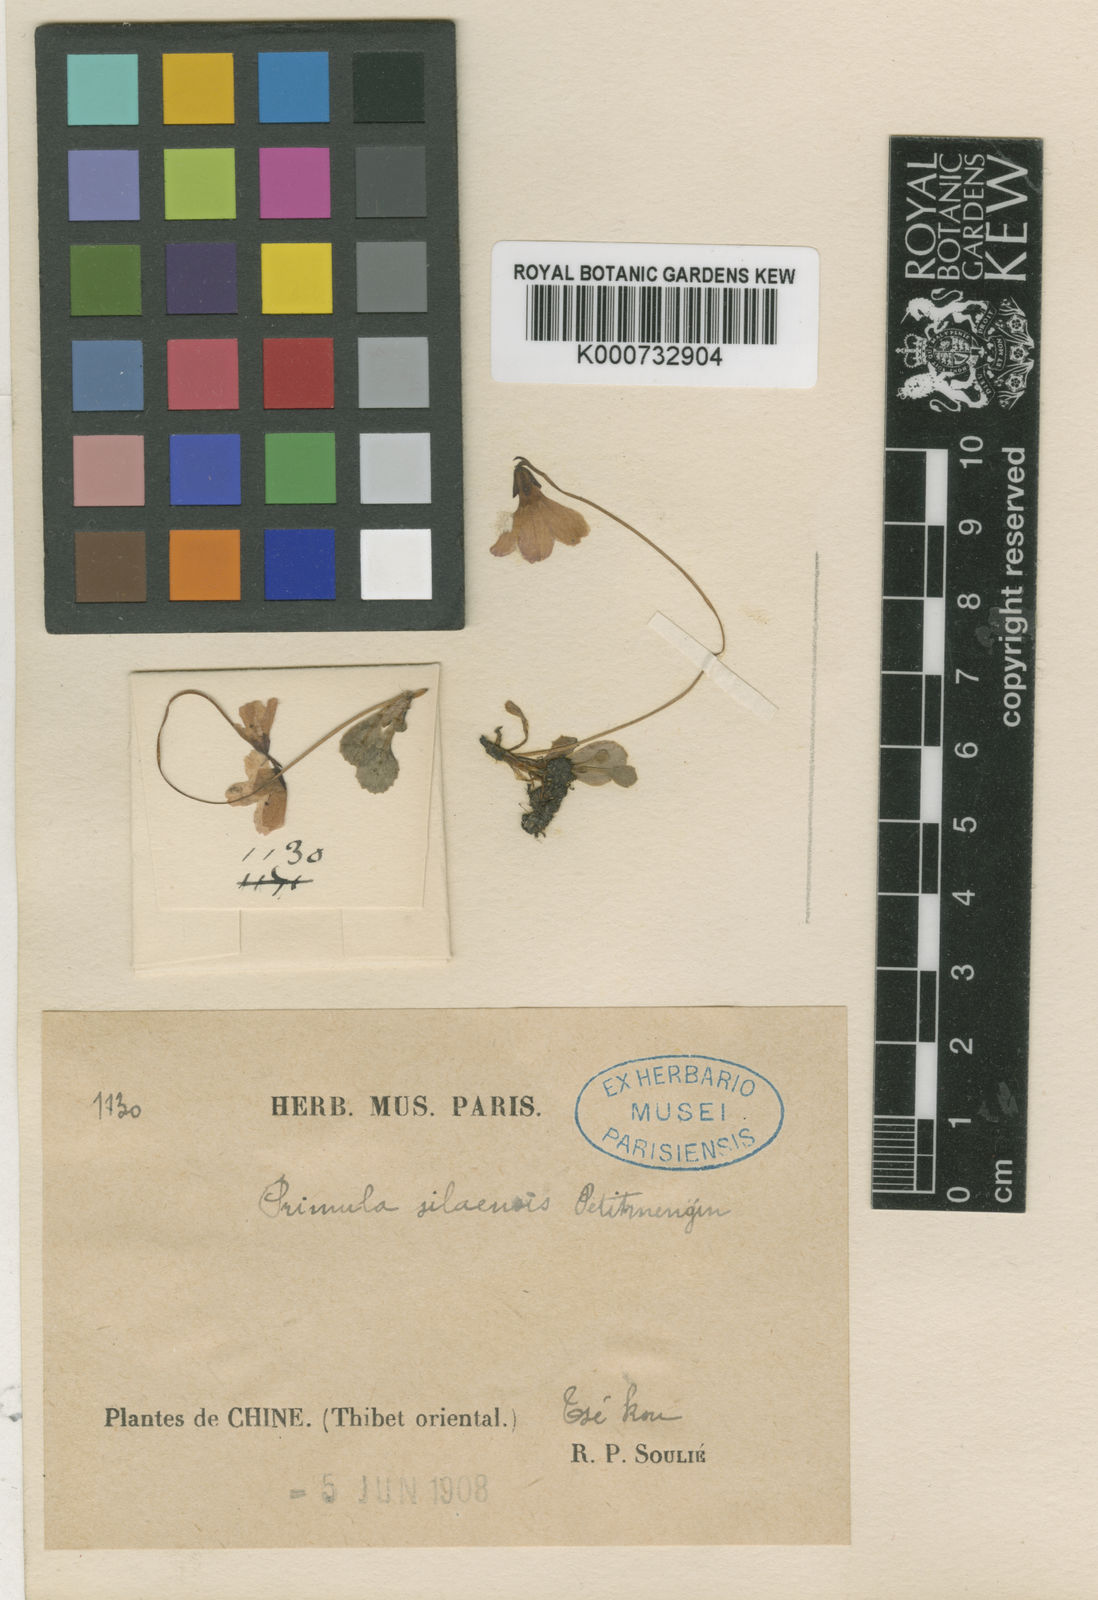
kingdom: Plantae
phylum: Tracheophyta
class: Magnoliopsida
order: Ericales
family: Primulaceae
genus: Primula
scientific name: Primula silaensis
